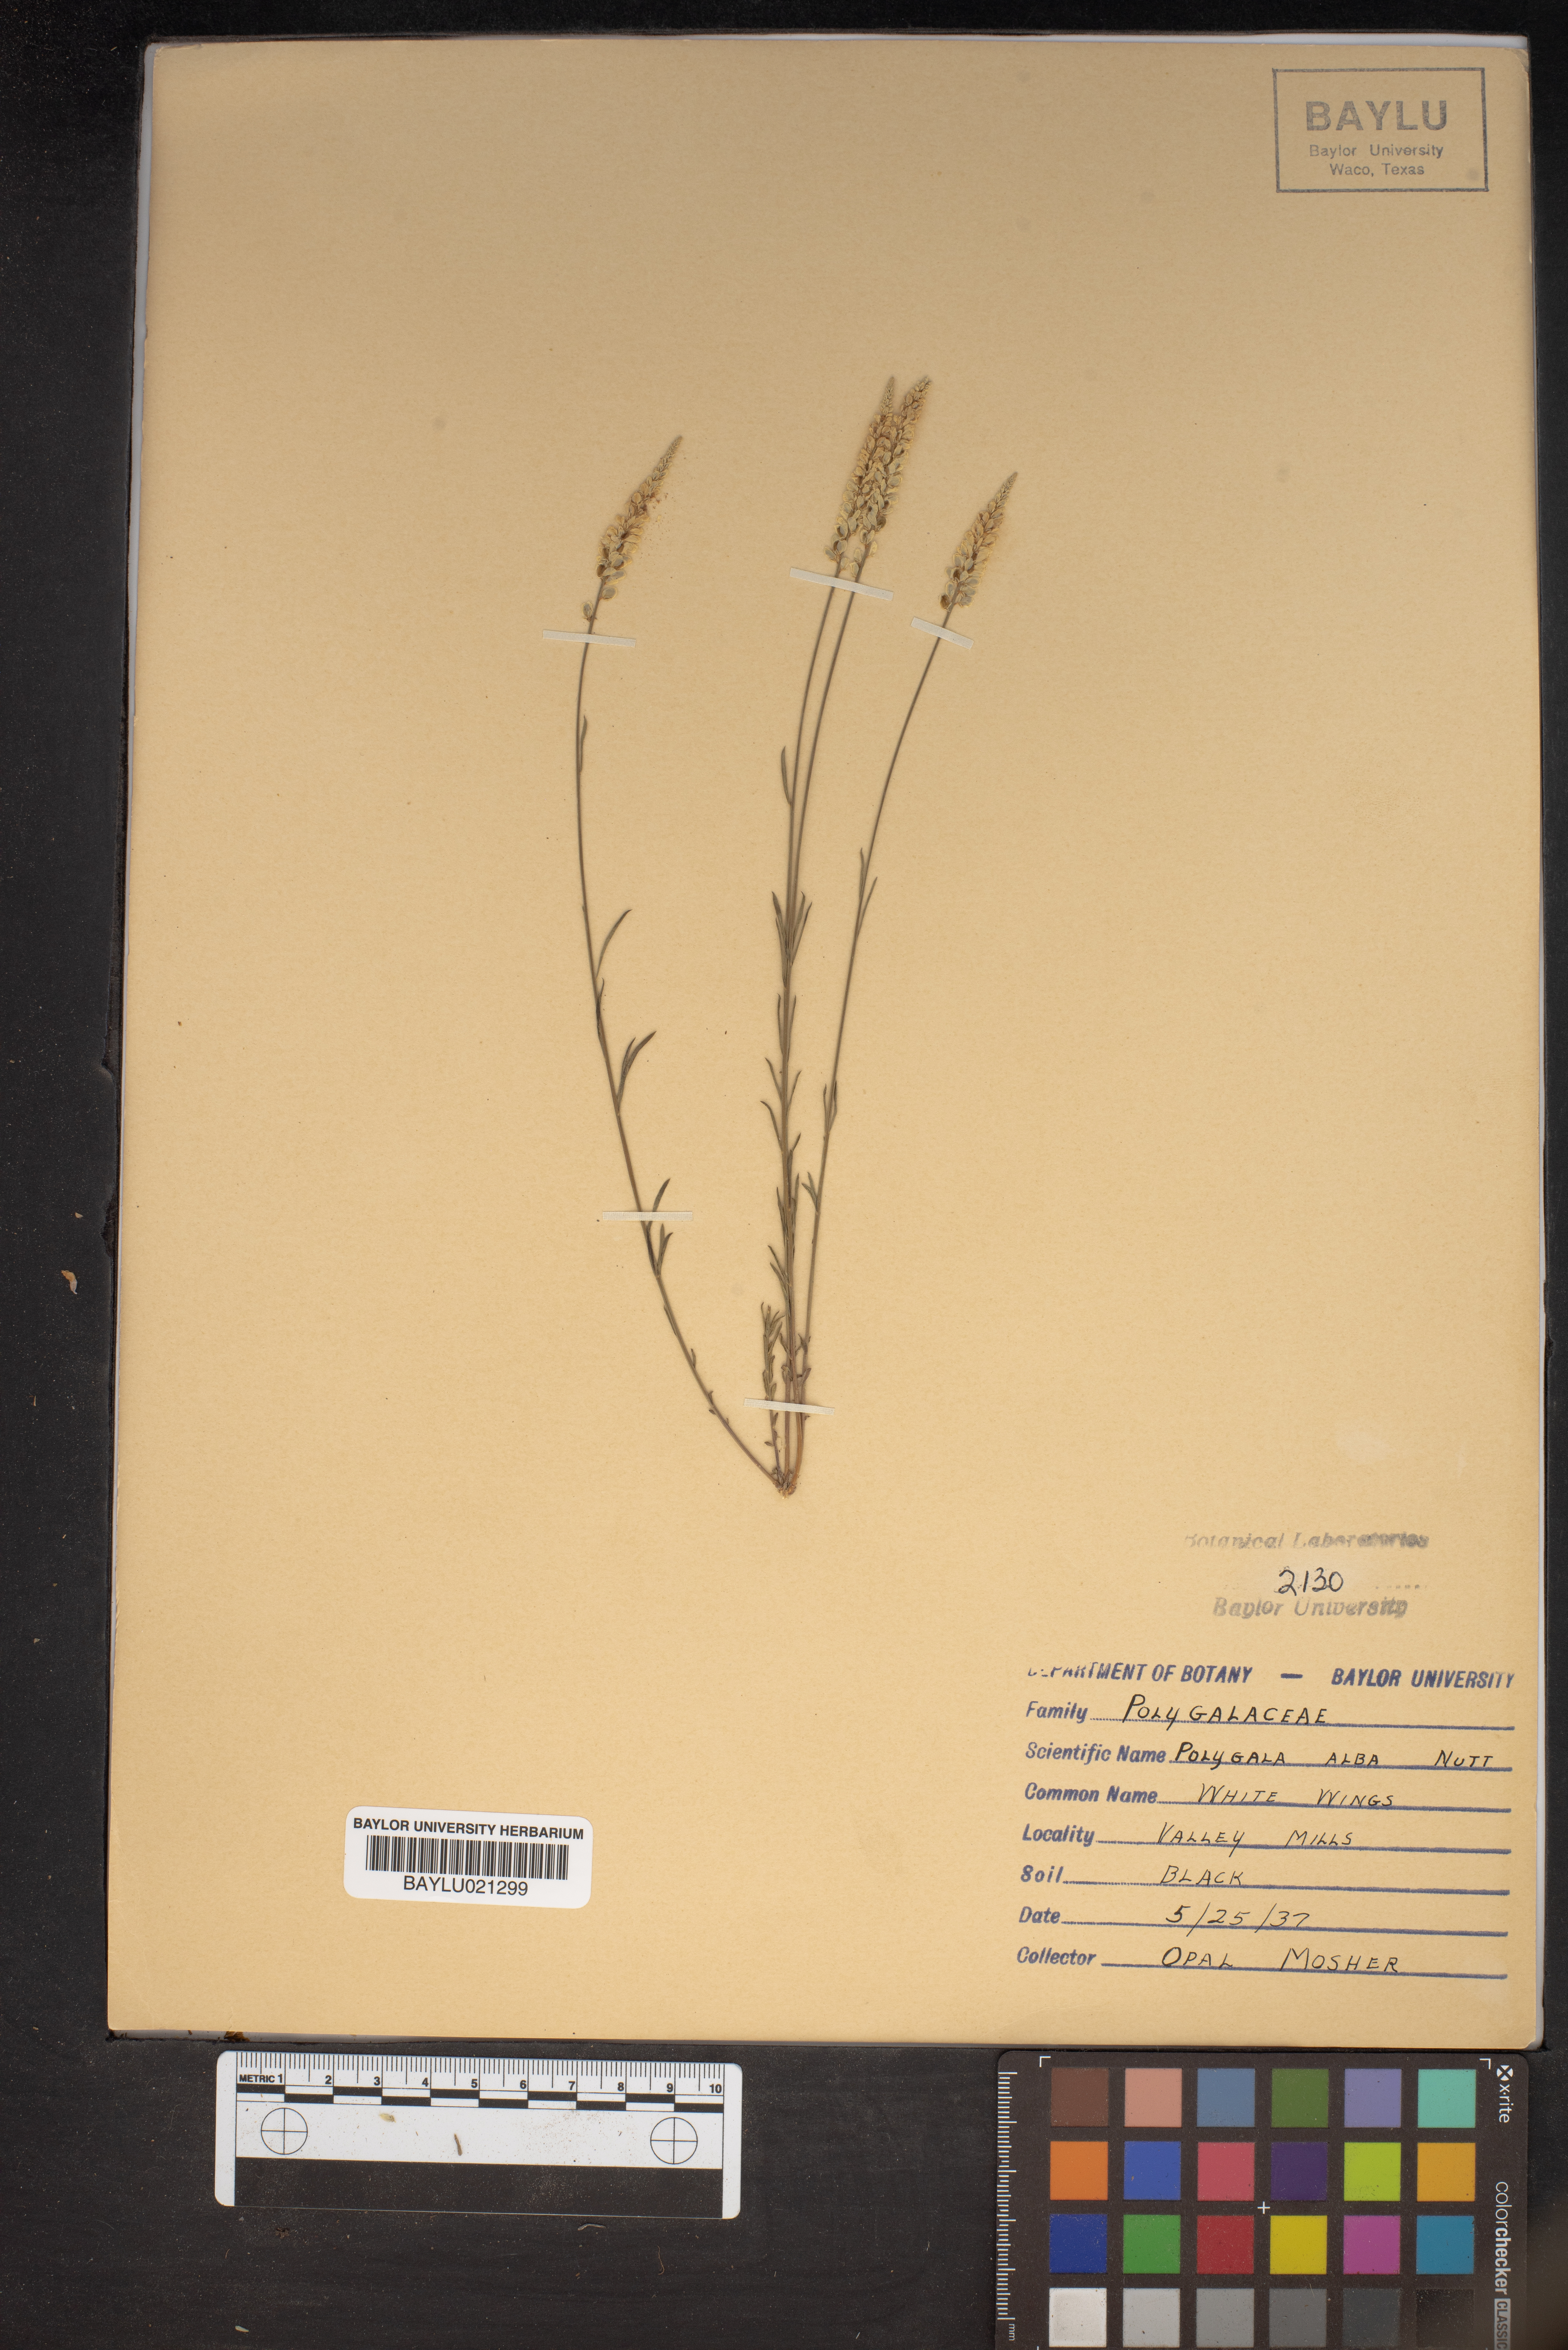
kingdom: Plantae
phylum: Tracheophyta
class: Magnoliopsida
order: Fabales
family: Polygalaceae
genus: Polygala
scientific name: Polygala alba
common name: White milkwort
